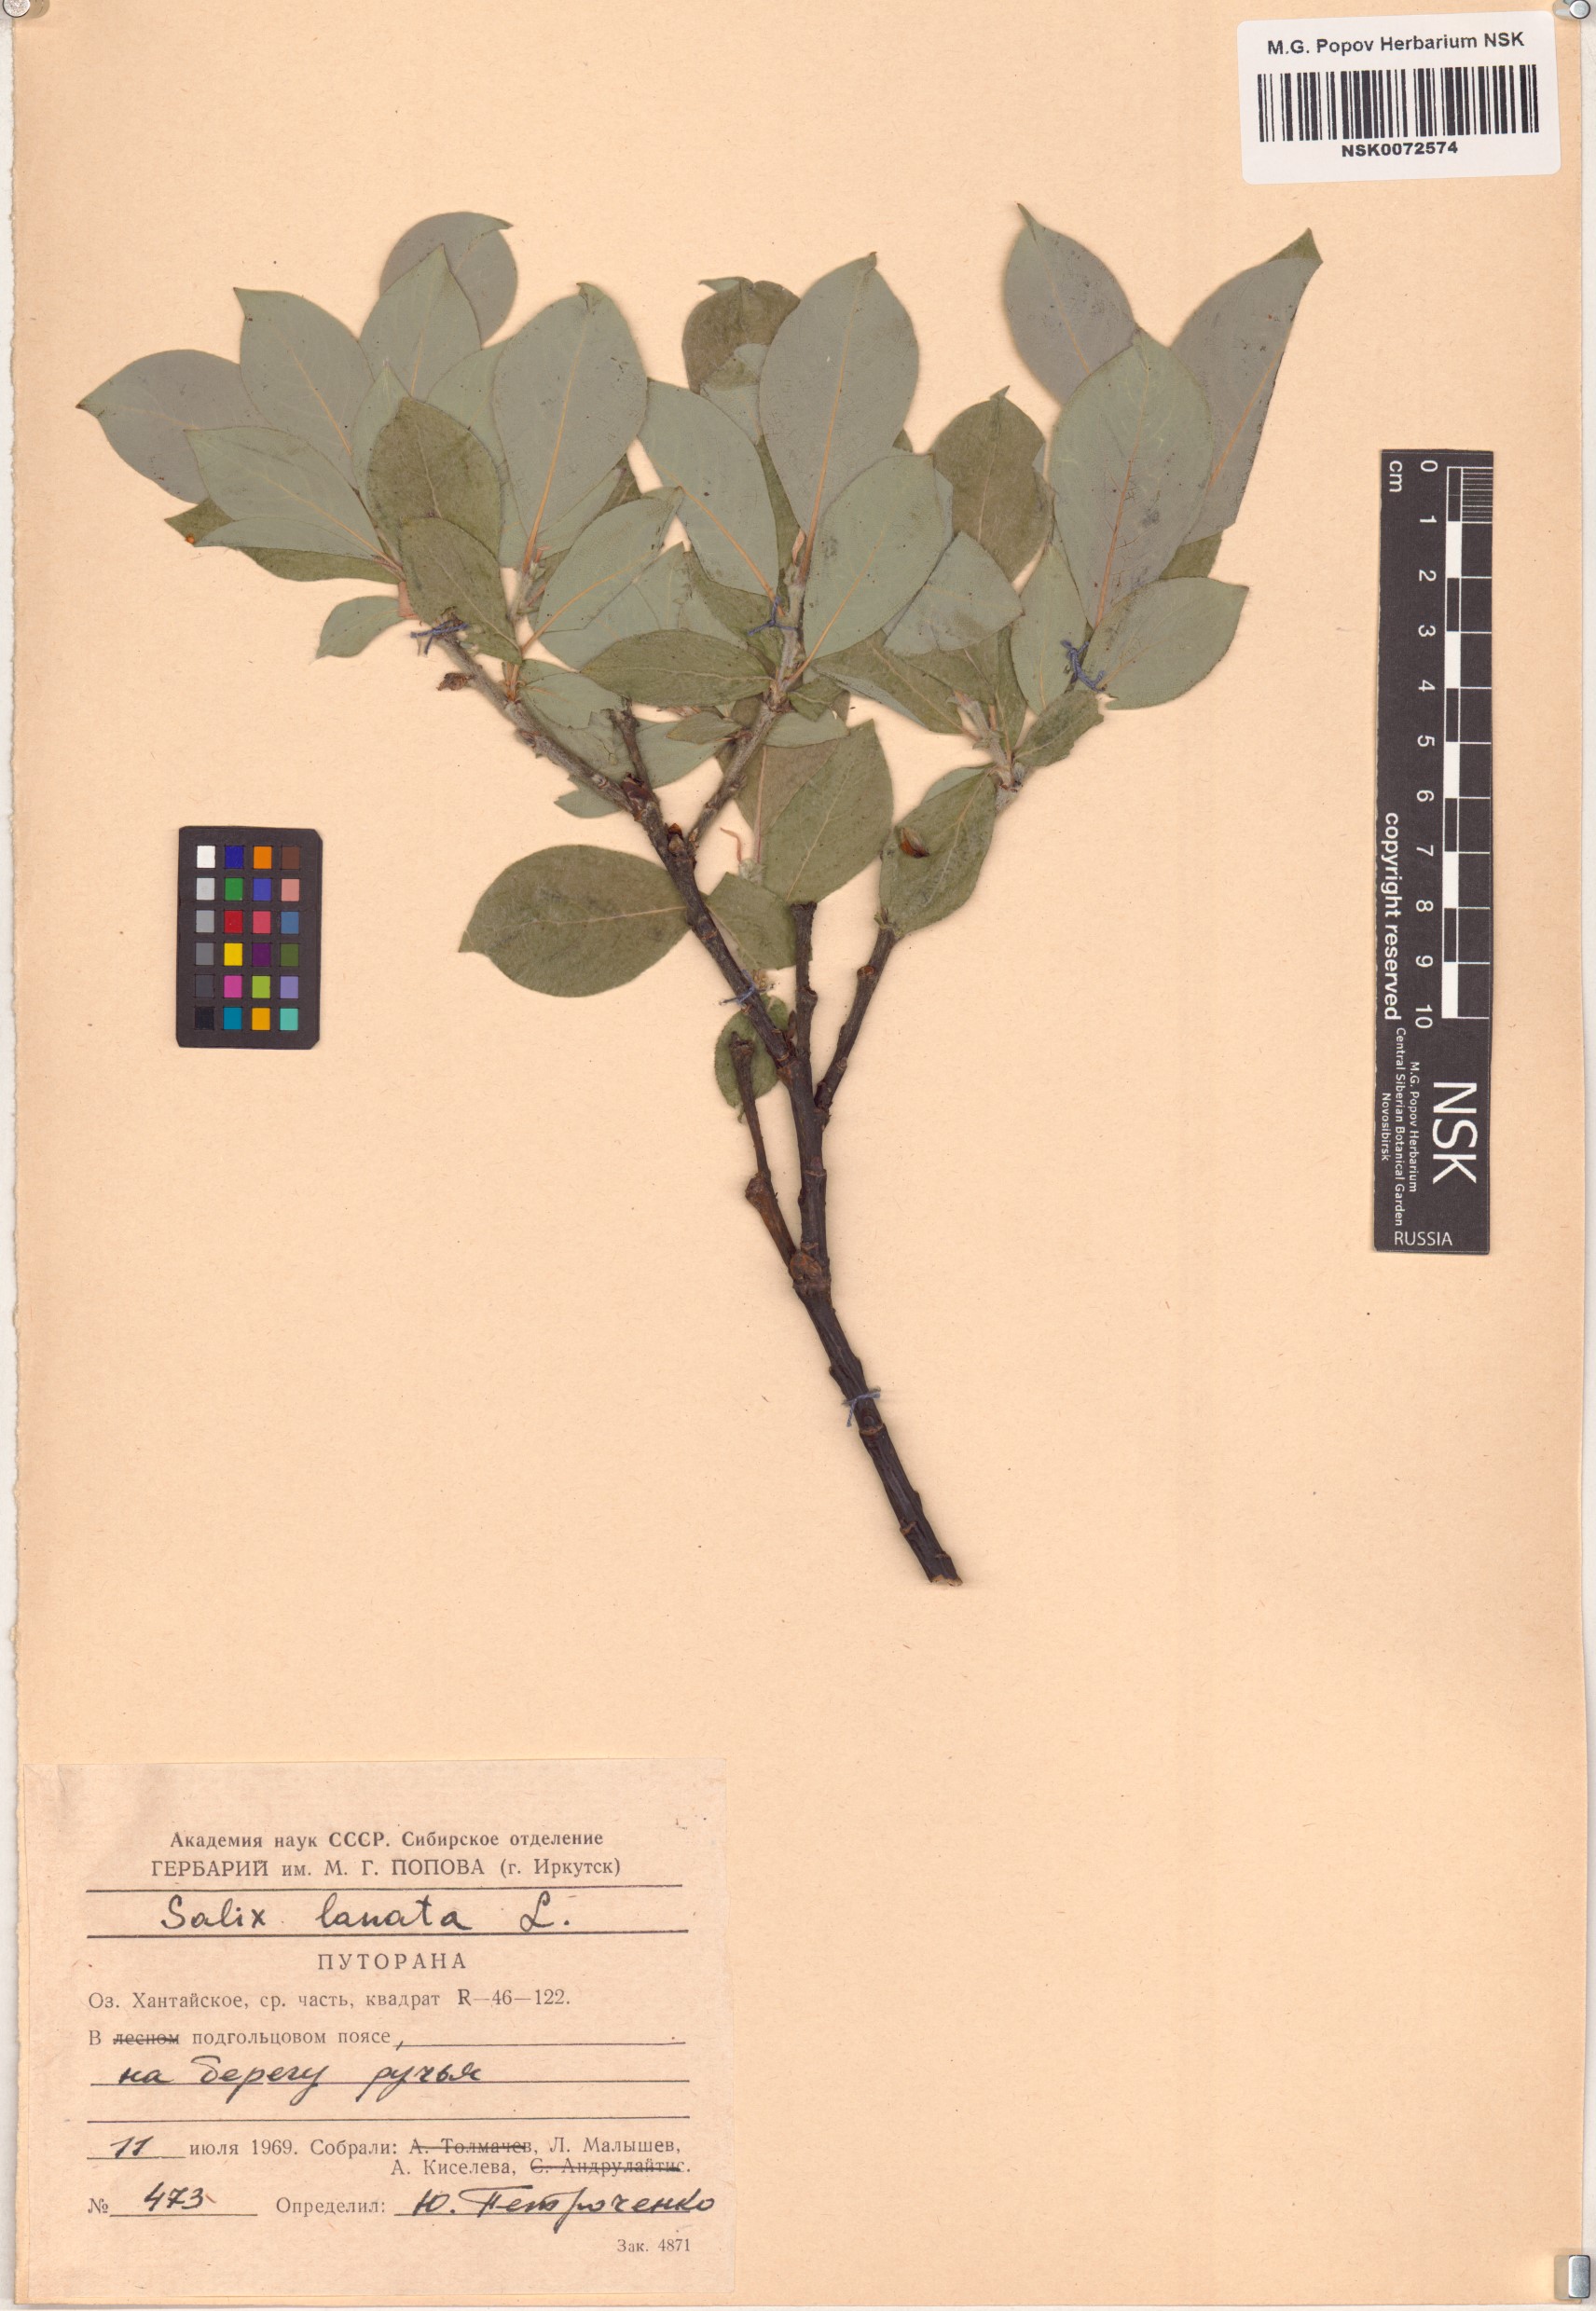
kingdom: Plantae
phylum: Tracheophyta
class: Magnoliopsida
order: Malpighiales
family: Salicaceae
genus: Salix
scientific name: Salix lanata
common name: Woolly willow
